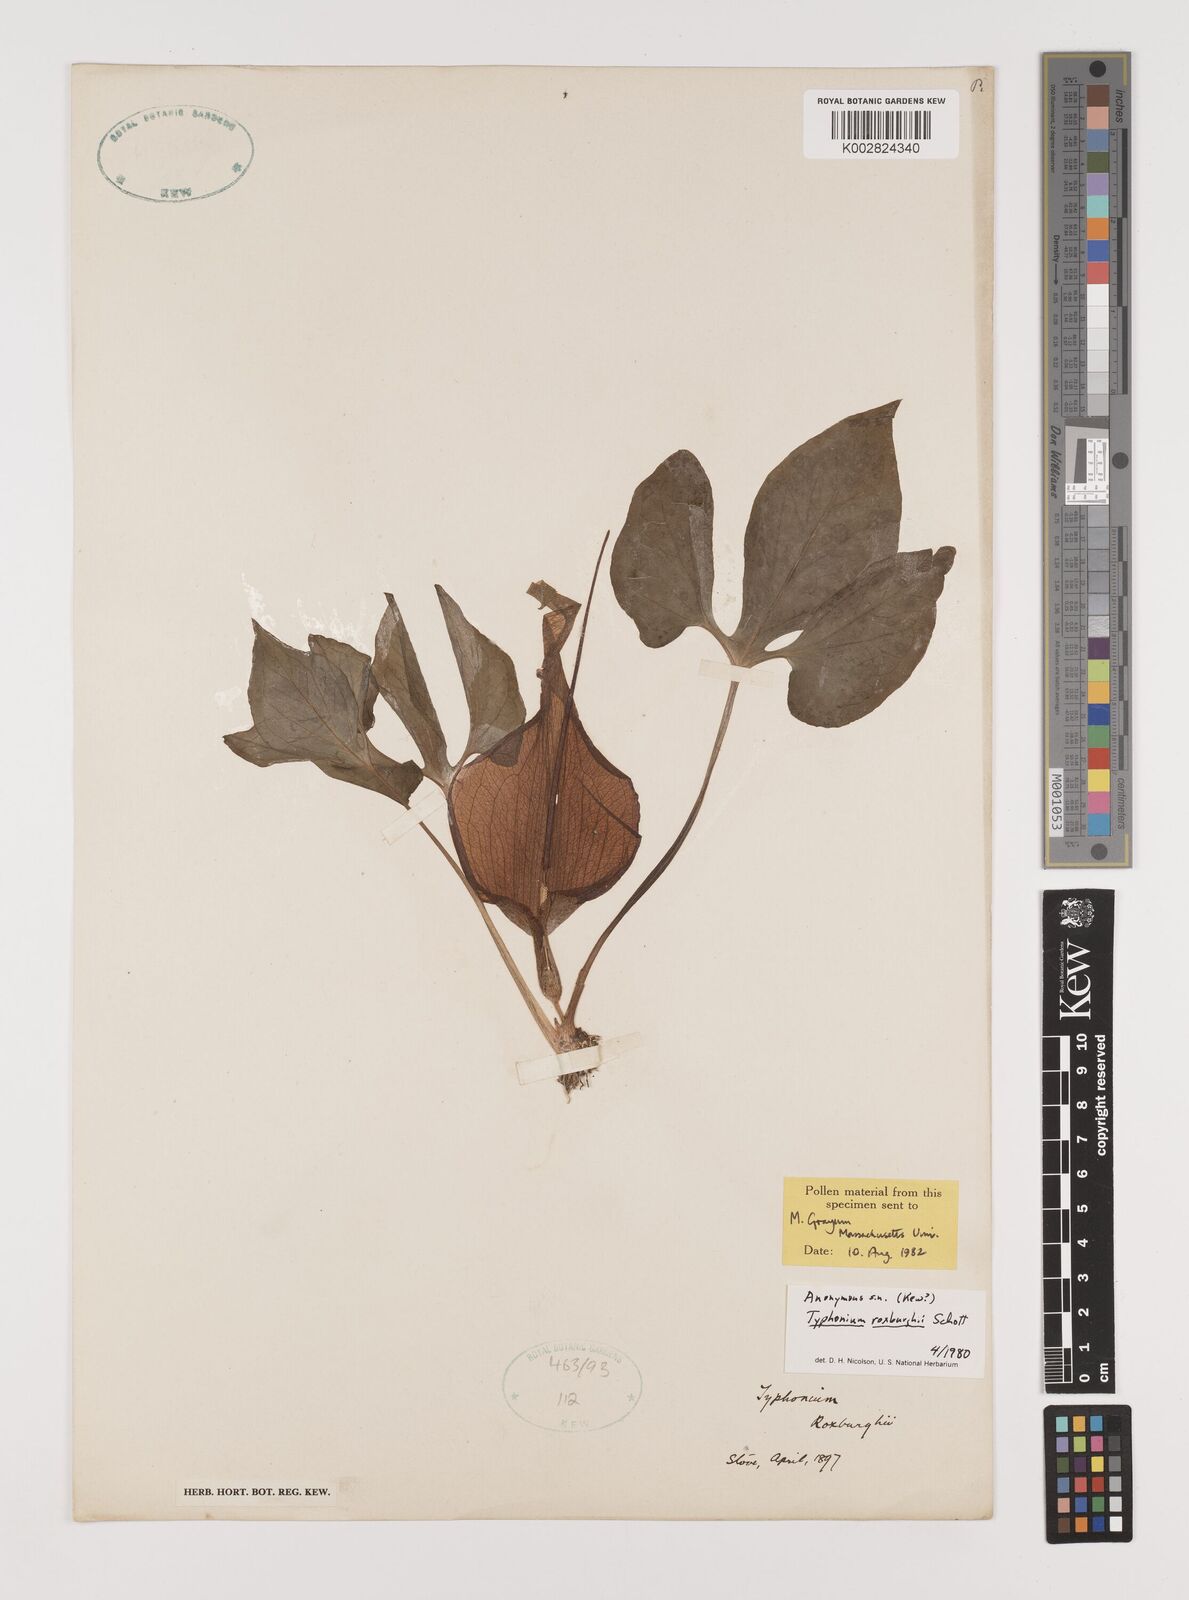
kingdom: Plantae
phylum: Tracheophyta
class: Liliopsida
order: Alismatales
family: Araceae
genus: Typhonium
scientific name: Typhonium roxburghii
